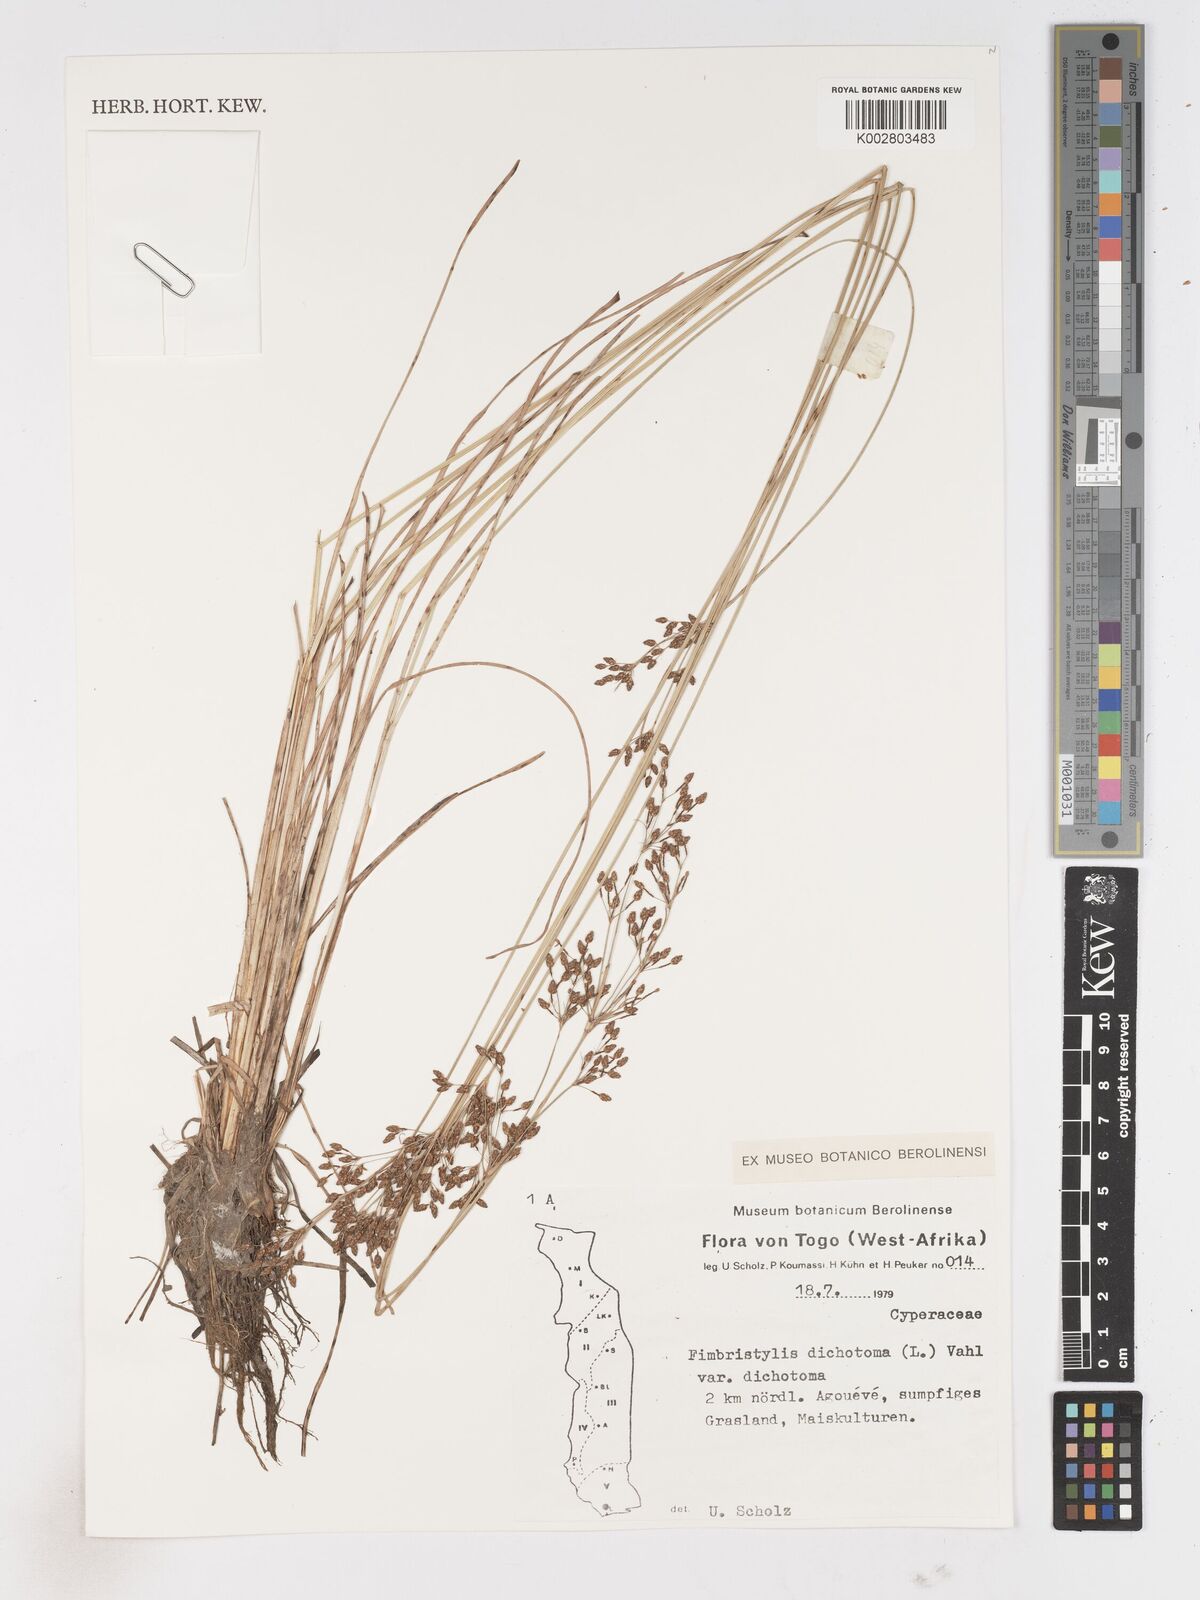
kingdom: Plantae
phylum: Tracheophyta
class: Liliopsida
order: Poales
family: Cyperaceae
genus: Fimbristylis
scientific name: Fimbristylis dichotoma
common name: Forked fimbry
